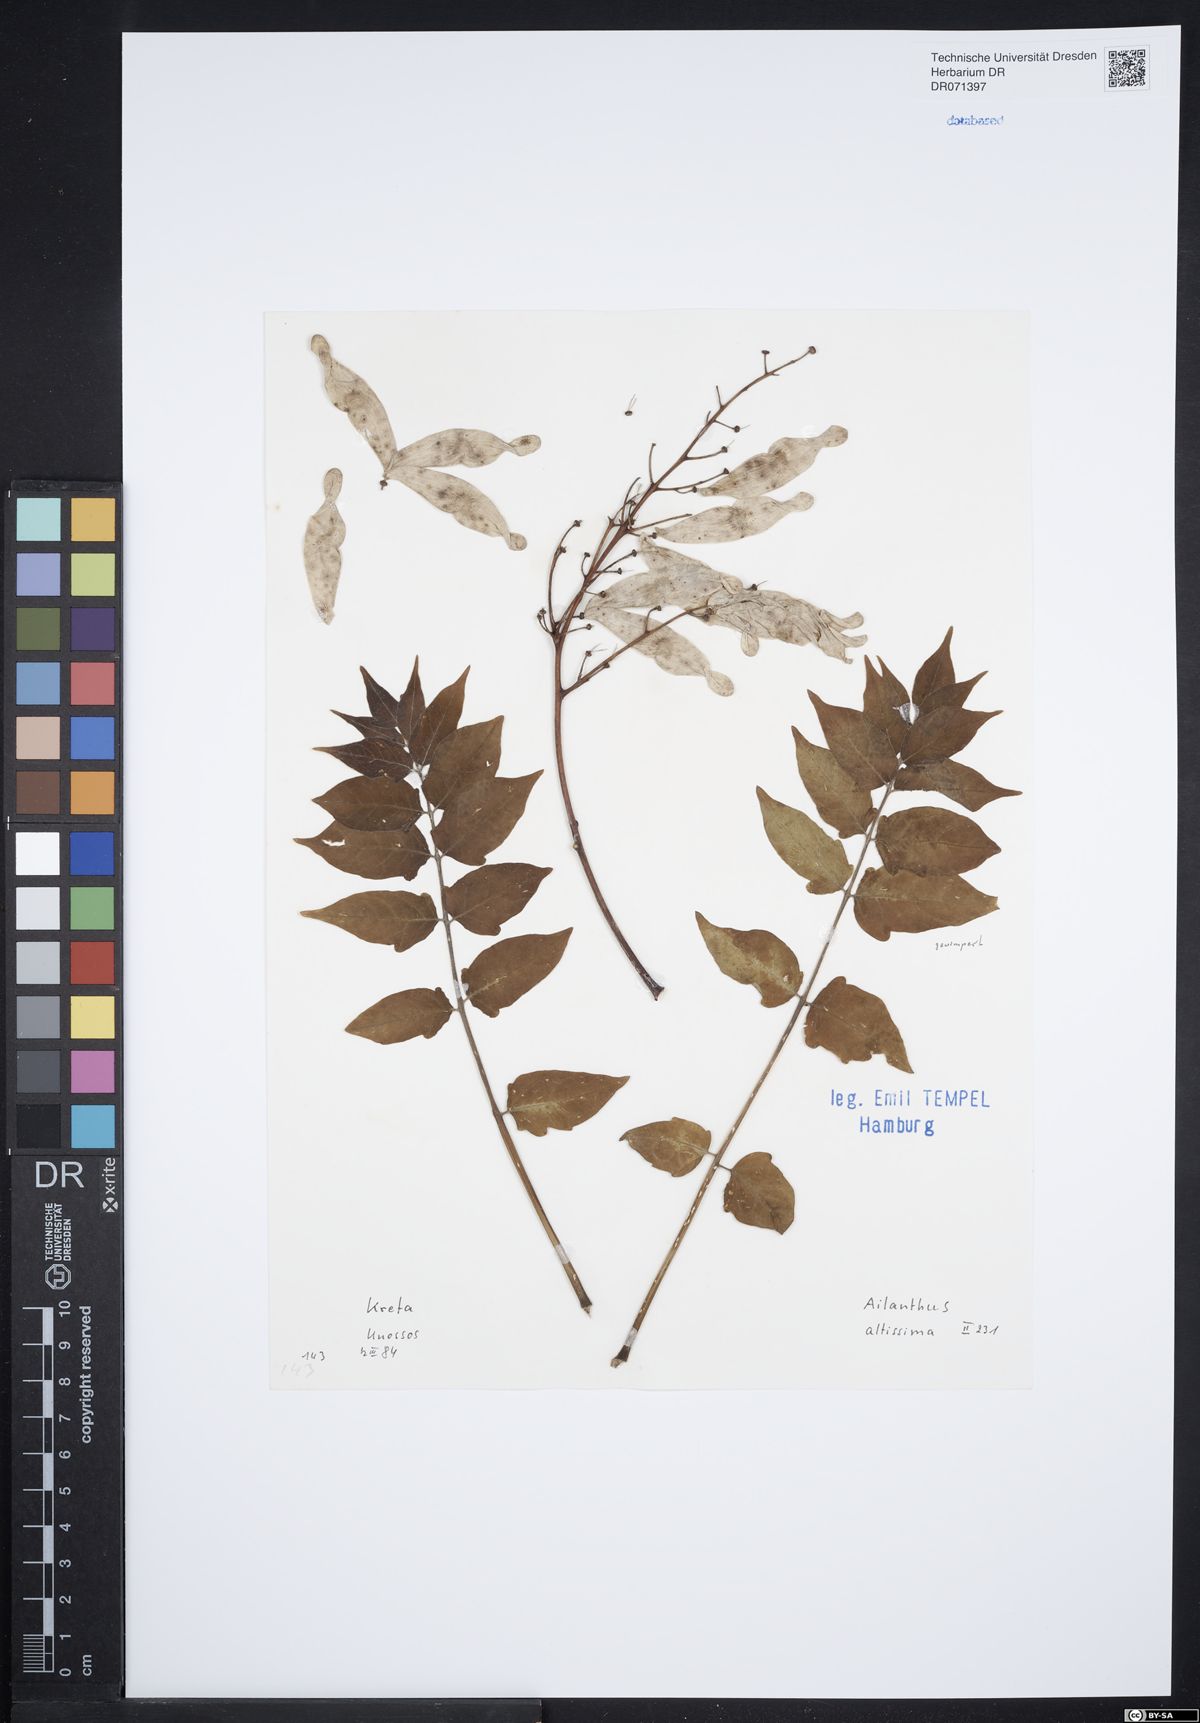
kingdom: Plantae
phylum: Tracheophyta
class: Magnoliopsida
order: Sapindales
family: Simaroubaceae
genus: Ailanthus
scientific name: Ailanthus altissima
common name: Tree-of-heaven
